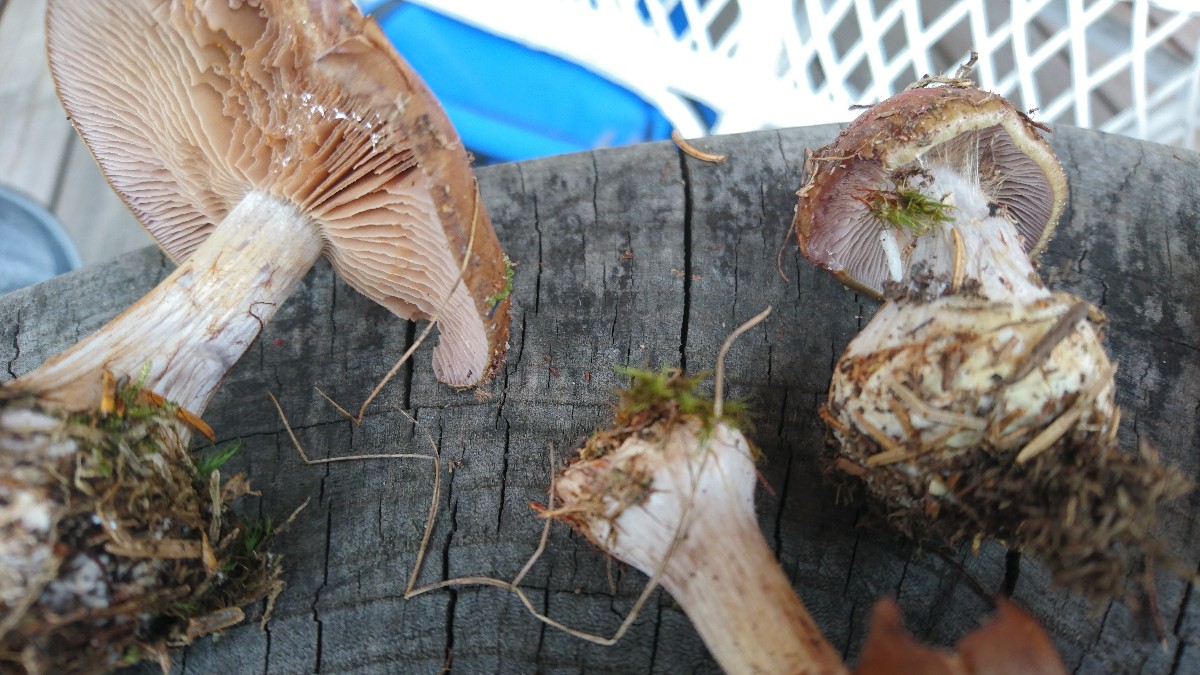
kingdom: Fungi
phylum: Basidiomycota
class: Agaricomycetes
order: Agaricales
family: Cortinariaceae
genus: Thaxterogaster
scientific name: Thaxterogaster sphagnophilus
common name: vandplettet slørhat
